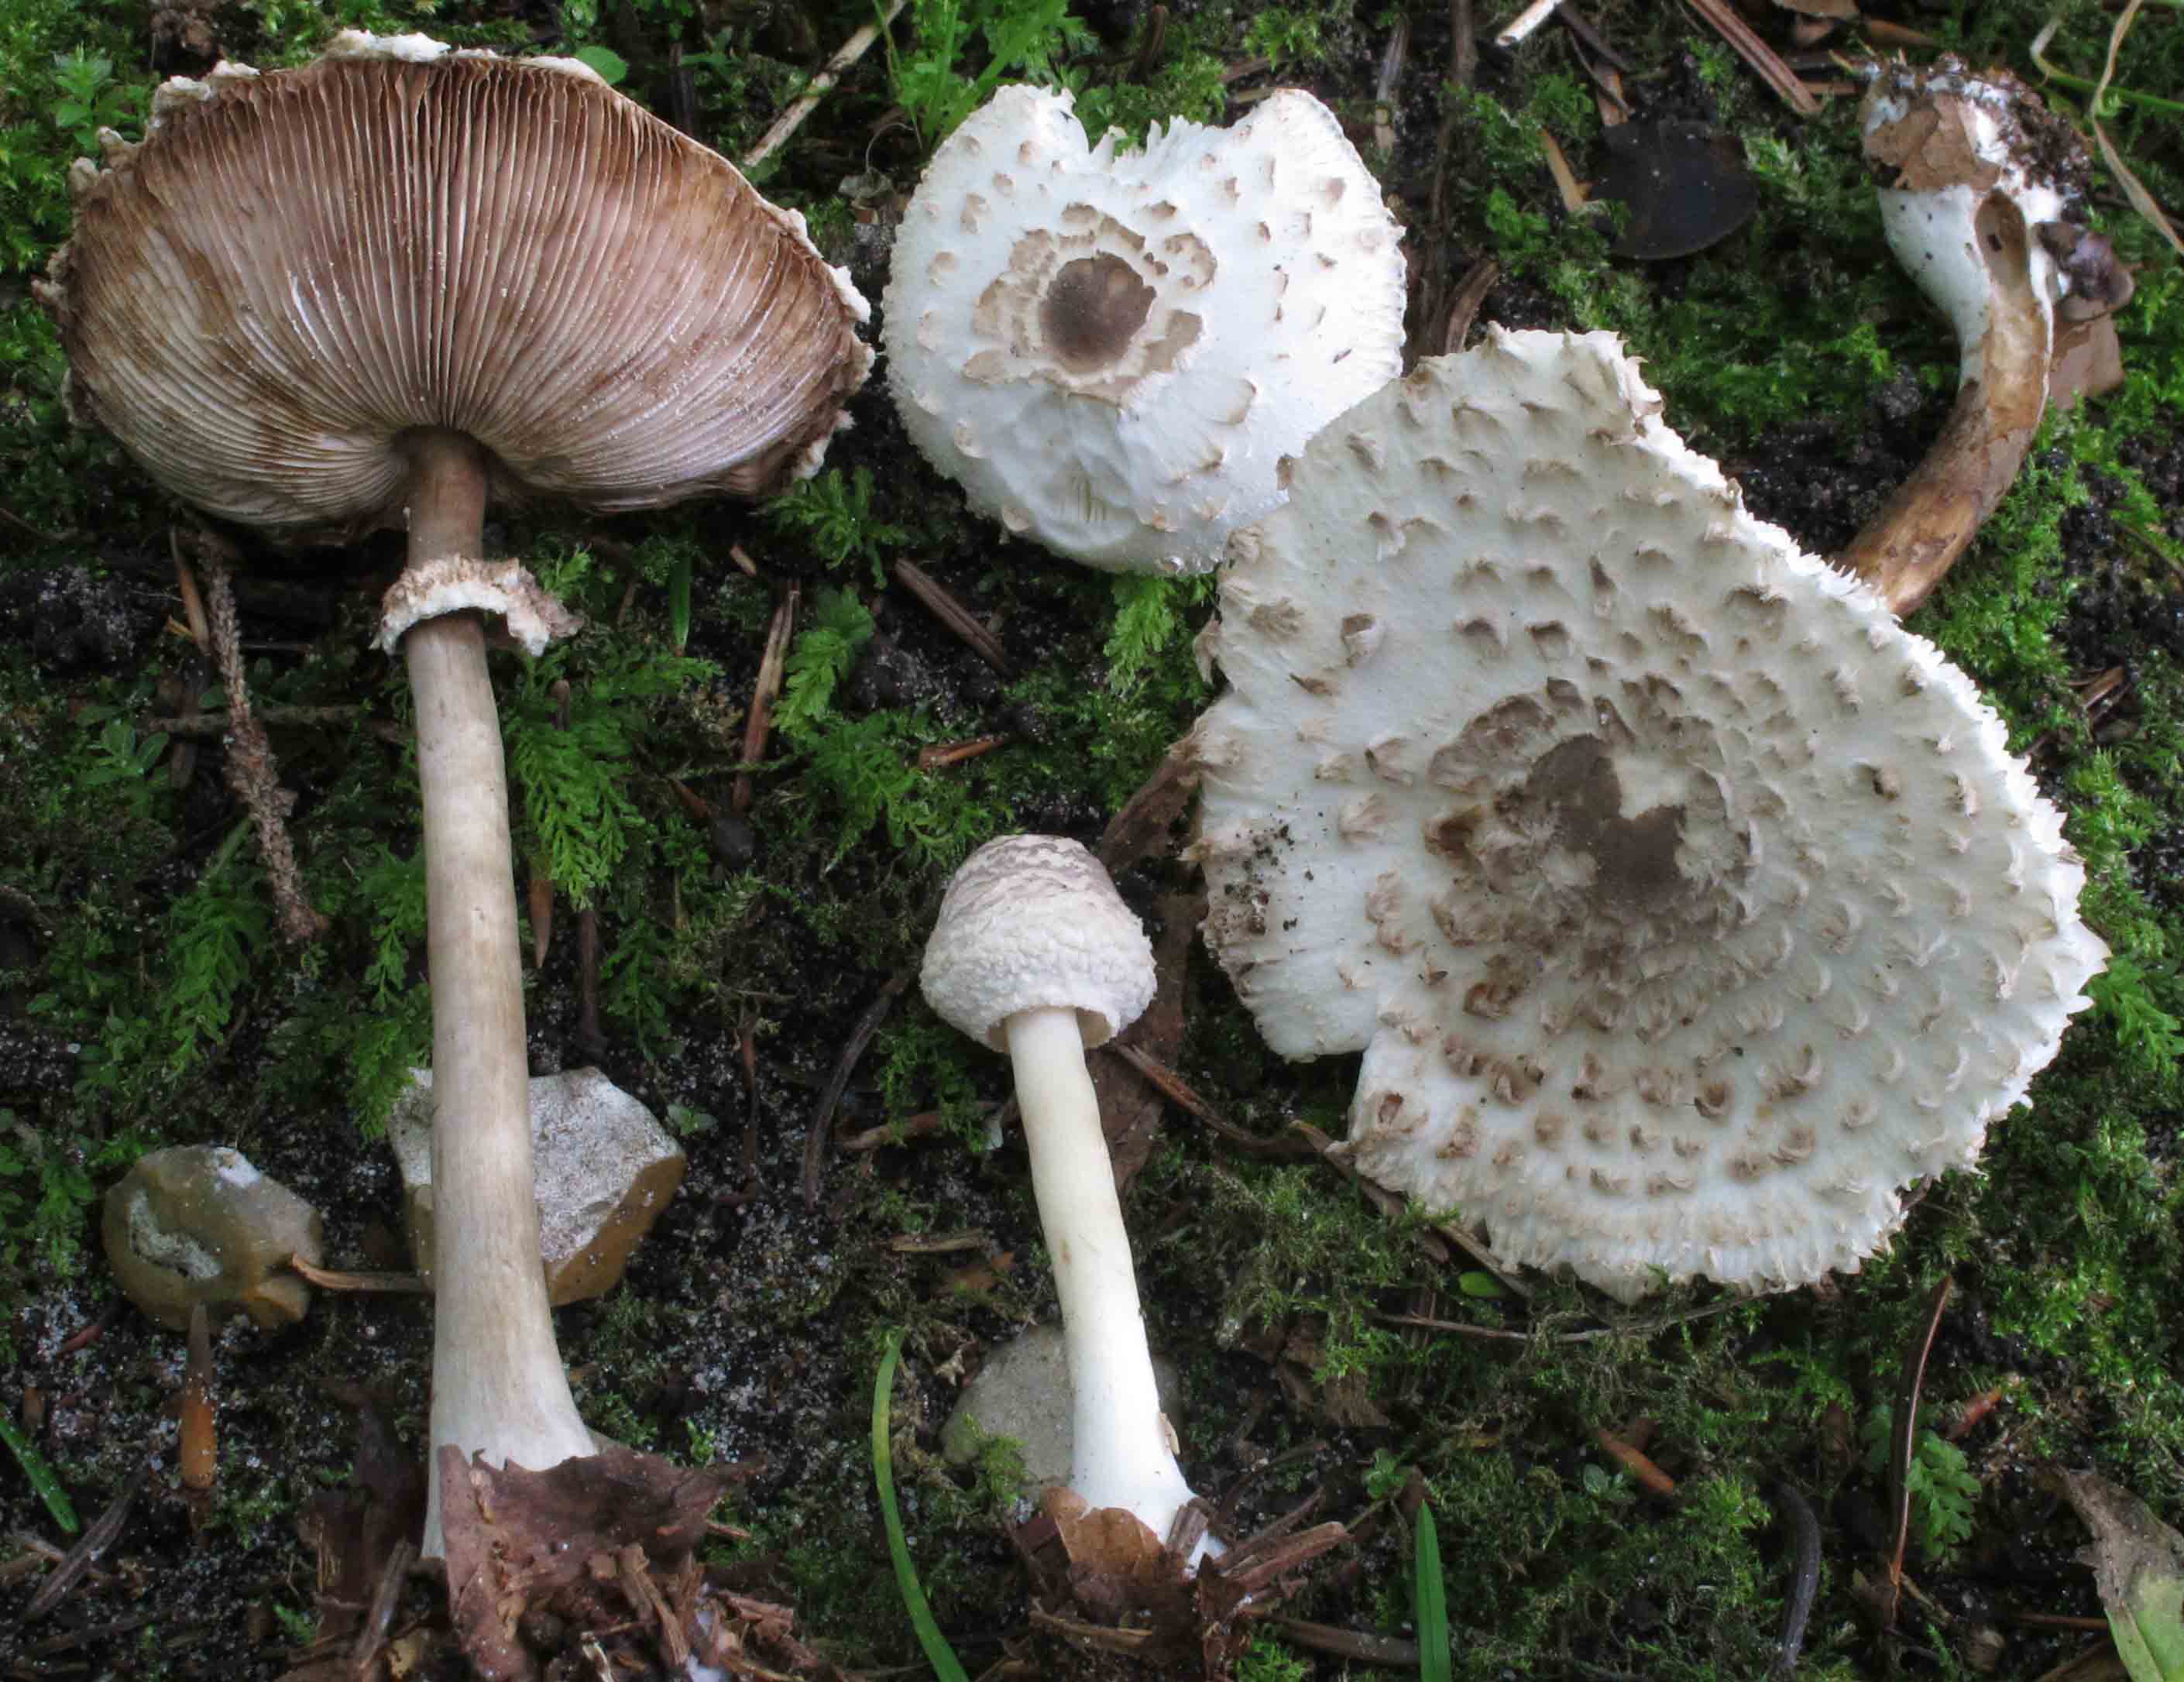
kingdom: Fungi
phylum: Basidiomycota
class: Agaricomycetes
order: Agaricales
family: Agaricaceae
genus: Leucoagaricus
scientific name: Leucoagaricus nympharum
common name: gran-silkehat
